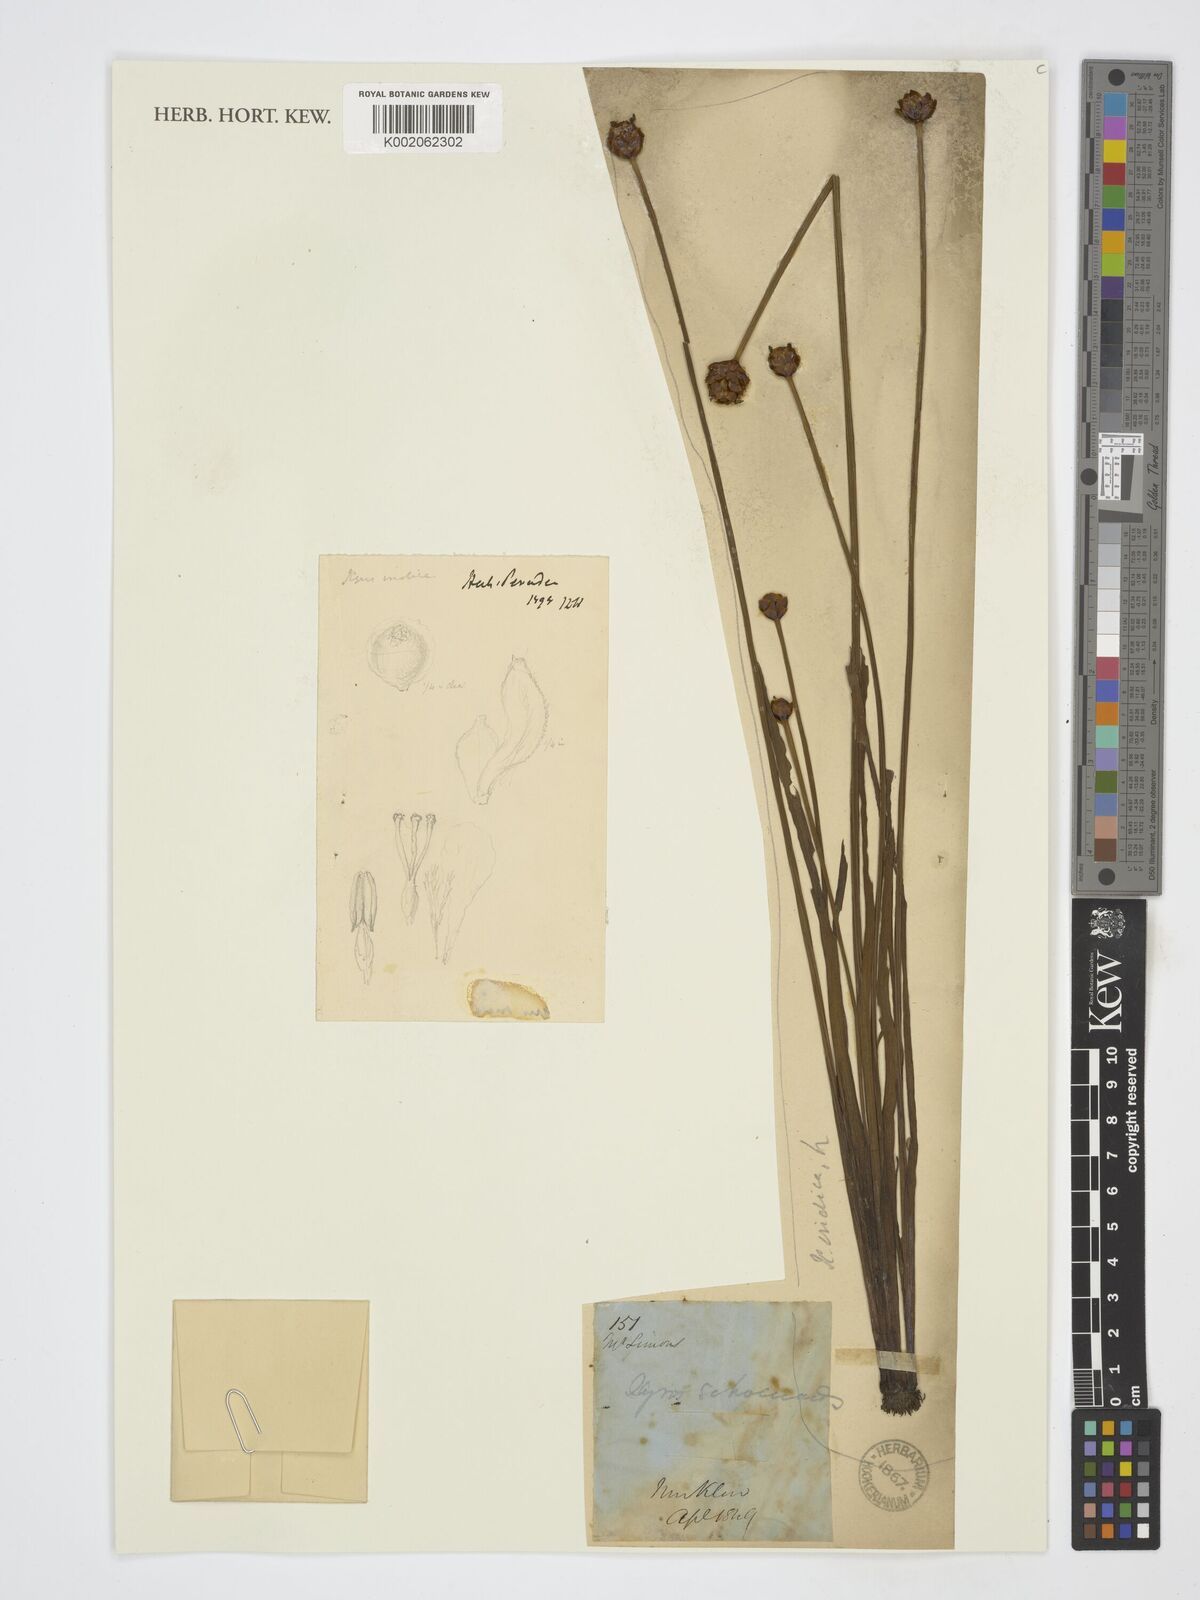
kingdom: Plantae
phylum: Tracheophyta
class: Liliopsida
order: Poales
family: Xyridaceae
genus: Xyris
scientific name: Xyris indica
